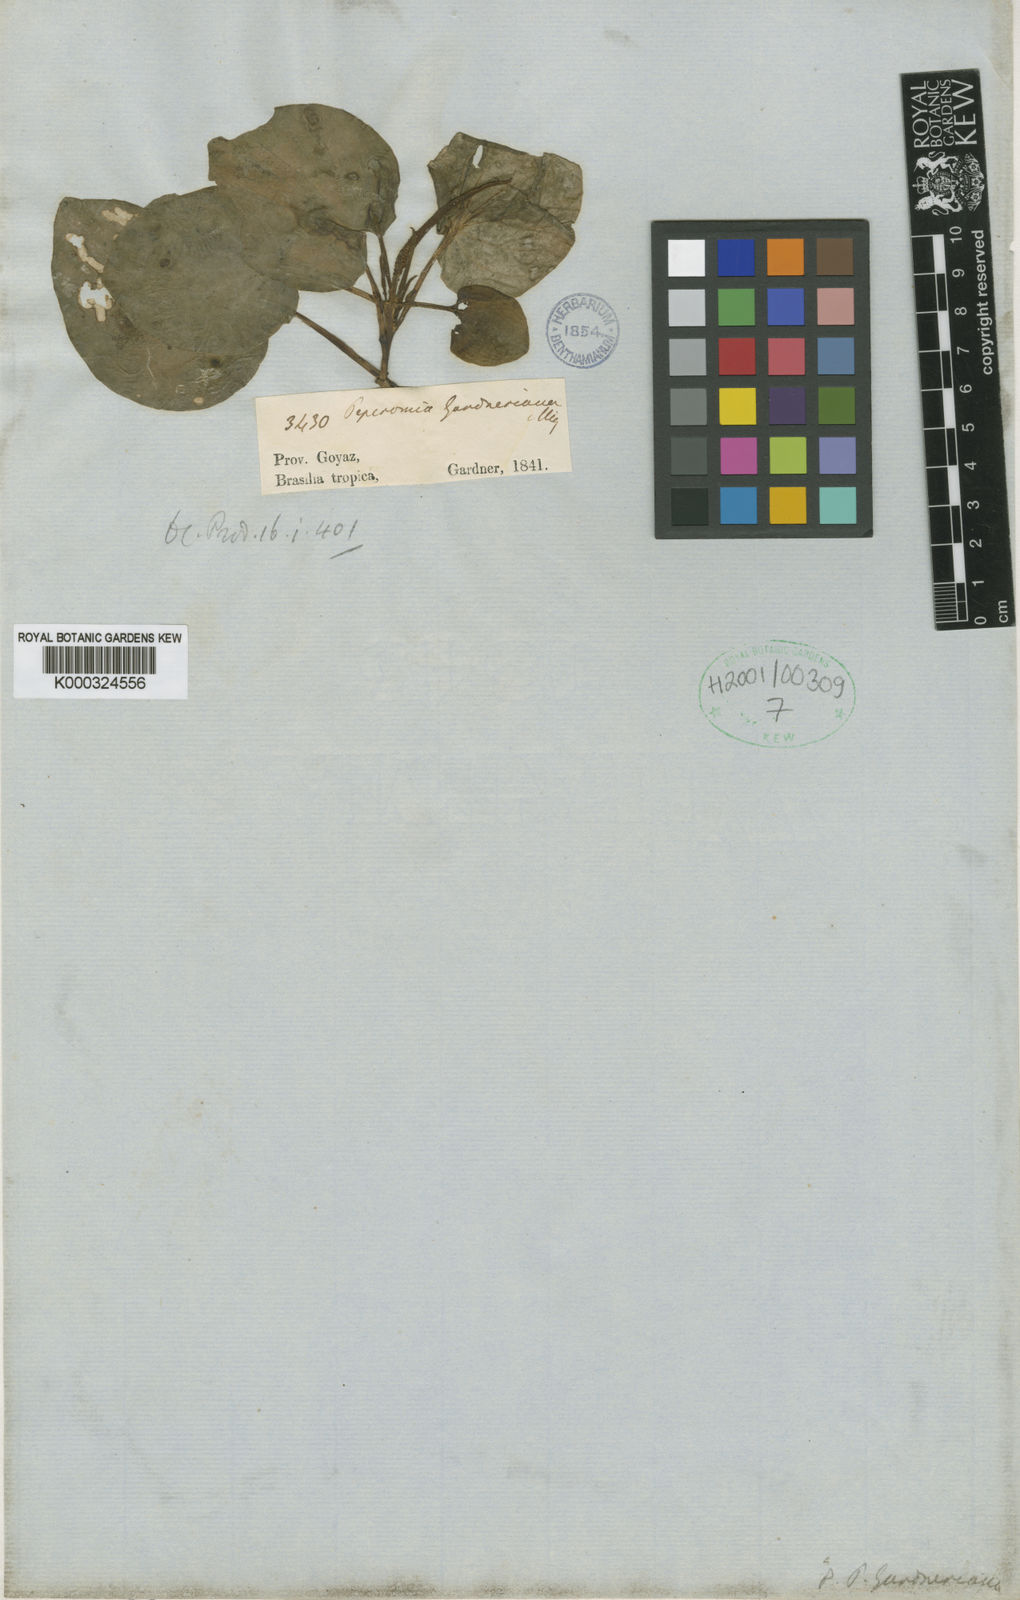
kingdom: Plantae
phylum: Tracheophyta
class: Magnoliopsida
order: Piperales
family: Piperaceae
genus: Peperomia
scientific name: Peperomia gardneriana
